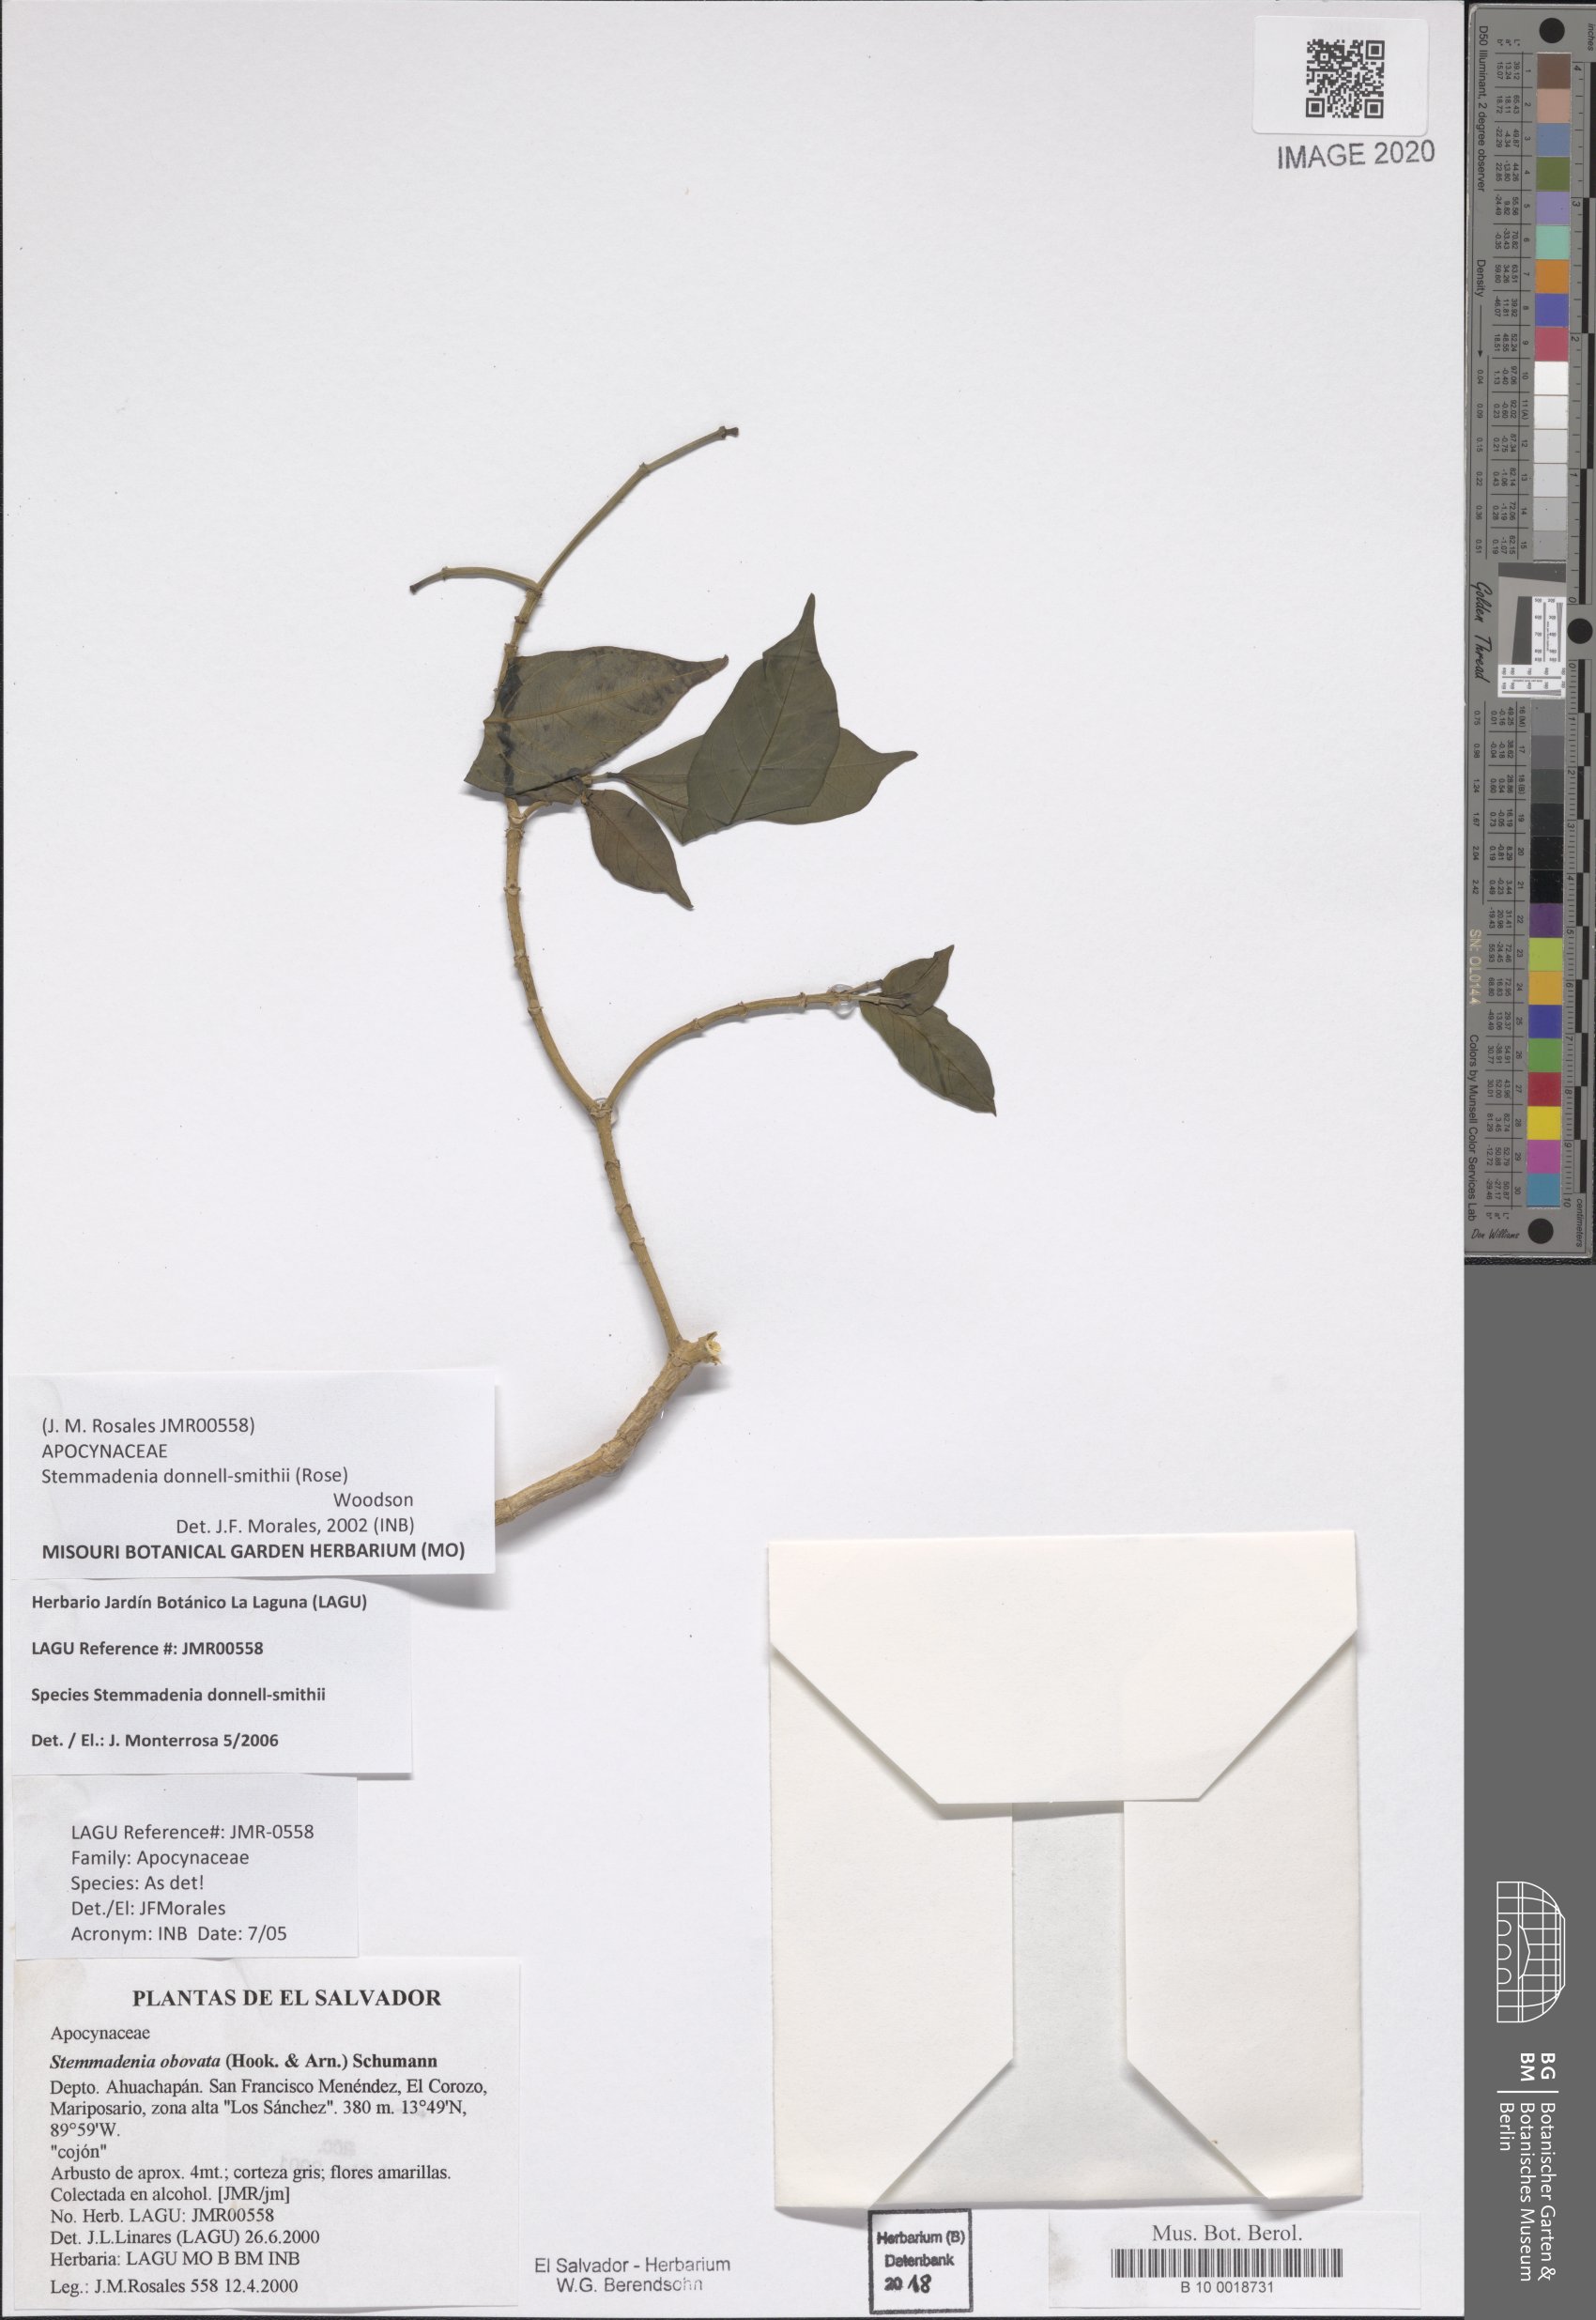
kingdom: Plantae
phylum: Tracheophyta
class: Magnoliopsida
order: Gentianales
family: Apocynaceae
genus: Tabernaemontana
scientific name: Tabernaemontana donnell-smithii
